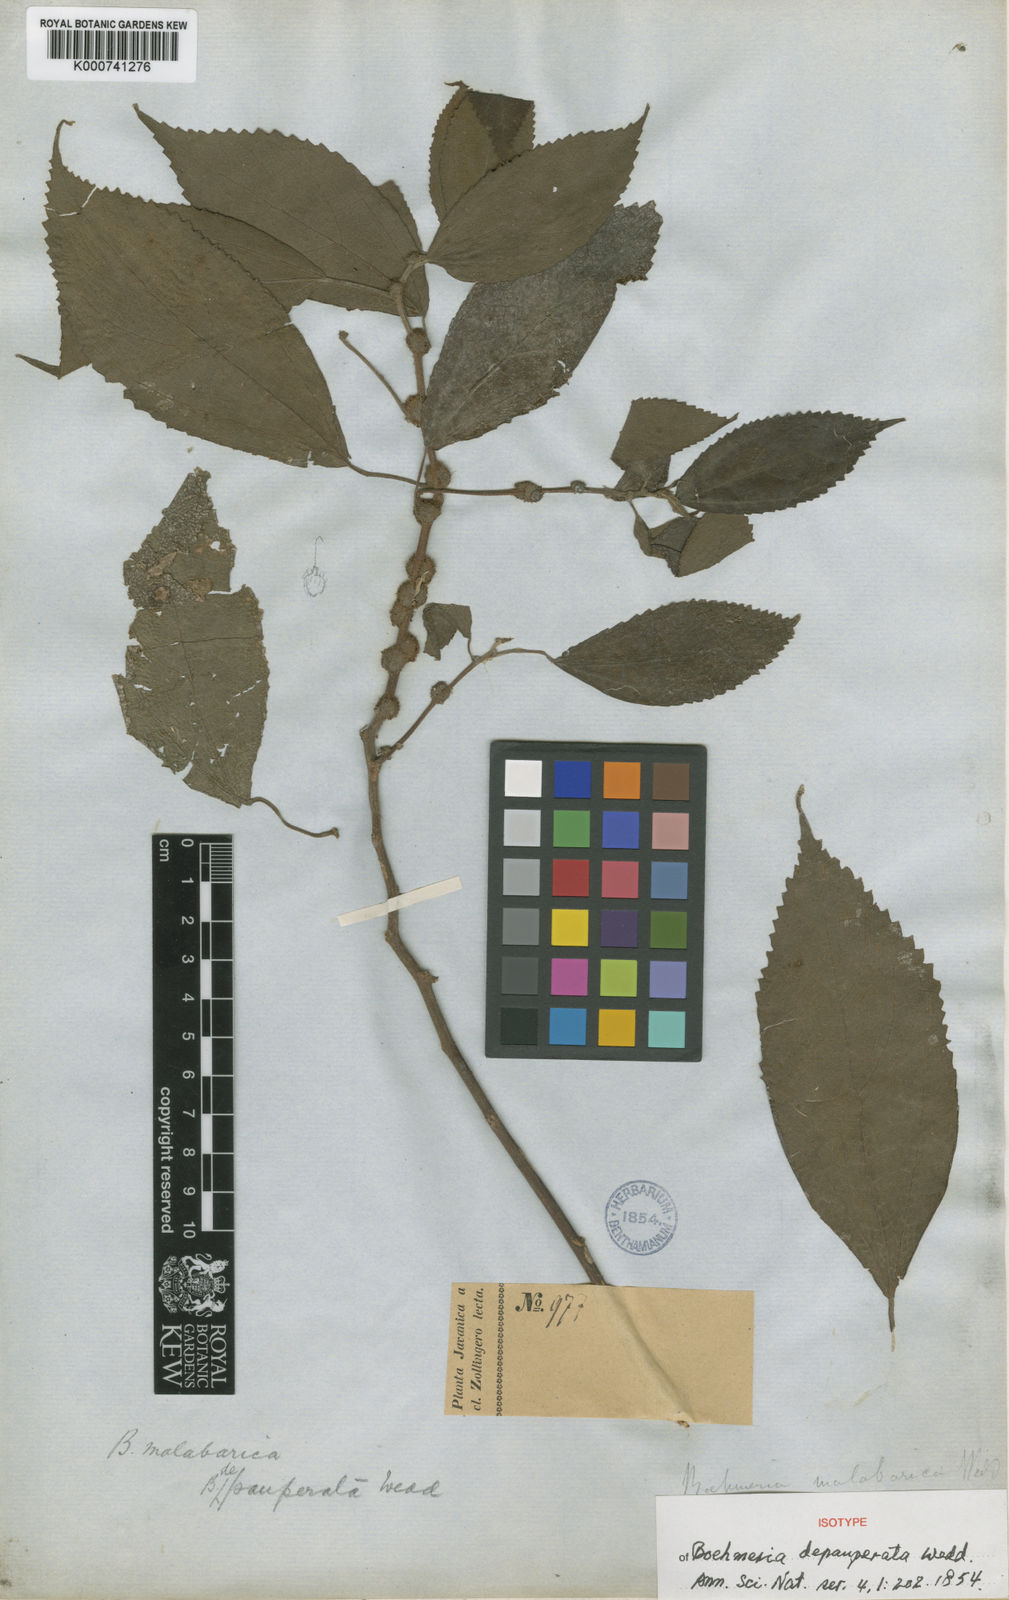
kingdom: Plantae
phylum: Tracheophyta
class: Magnoliopsida
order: Rosales
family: Urticaceae
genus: Boehmeria
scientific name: Boehmeria depauperata
